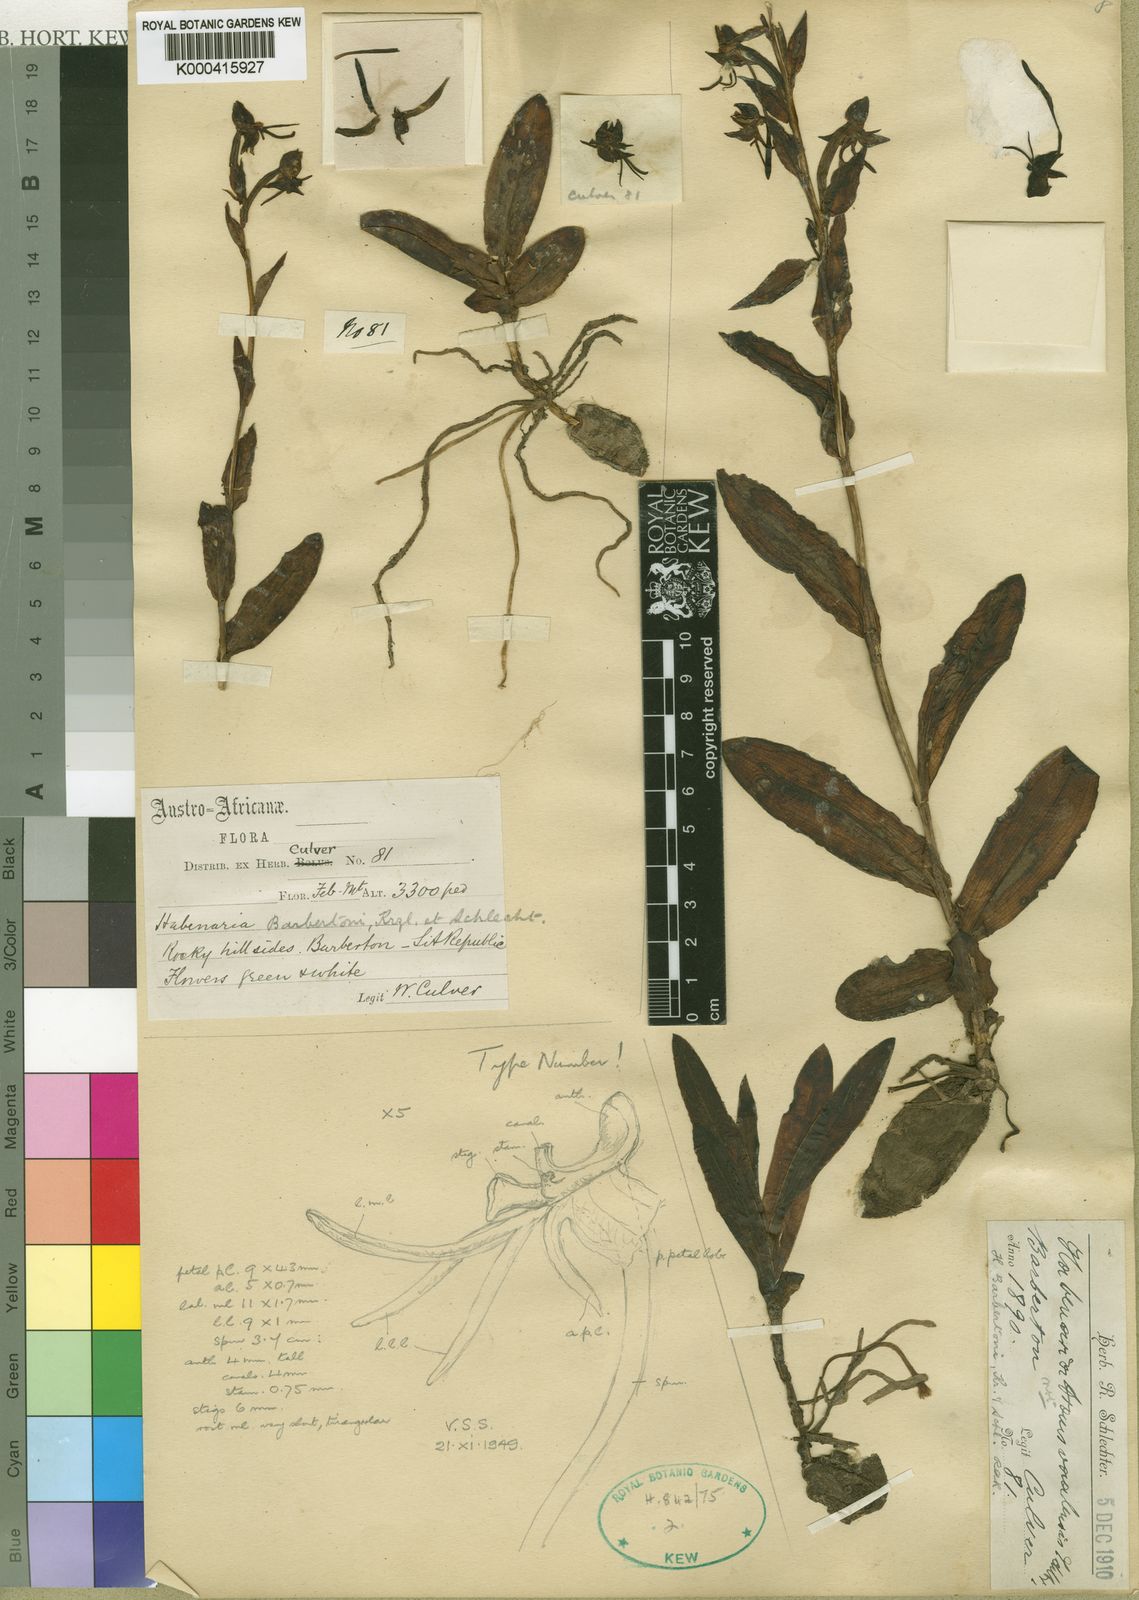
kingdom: Plantae
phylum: Tracheophyta
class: Liliopsida
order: Asparagales
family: Orchidaceae
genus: Habenaria
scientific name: Habenaria transvaalensis
